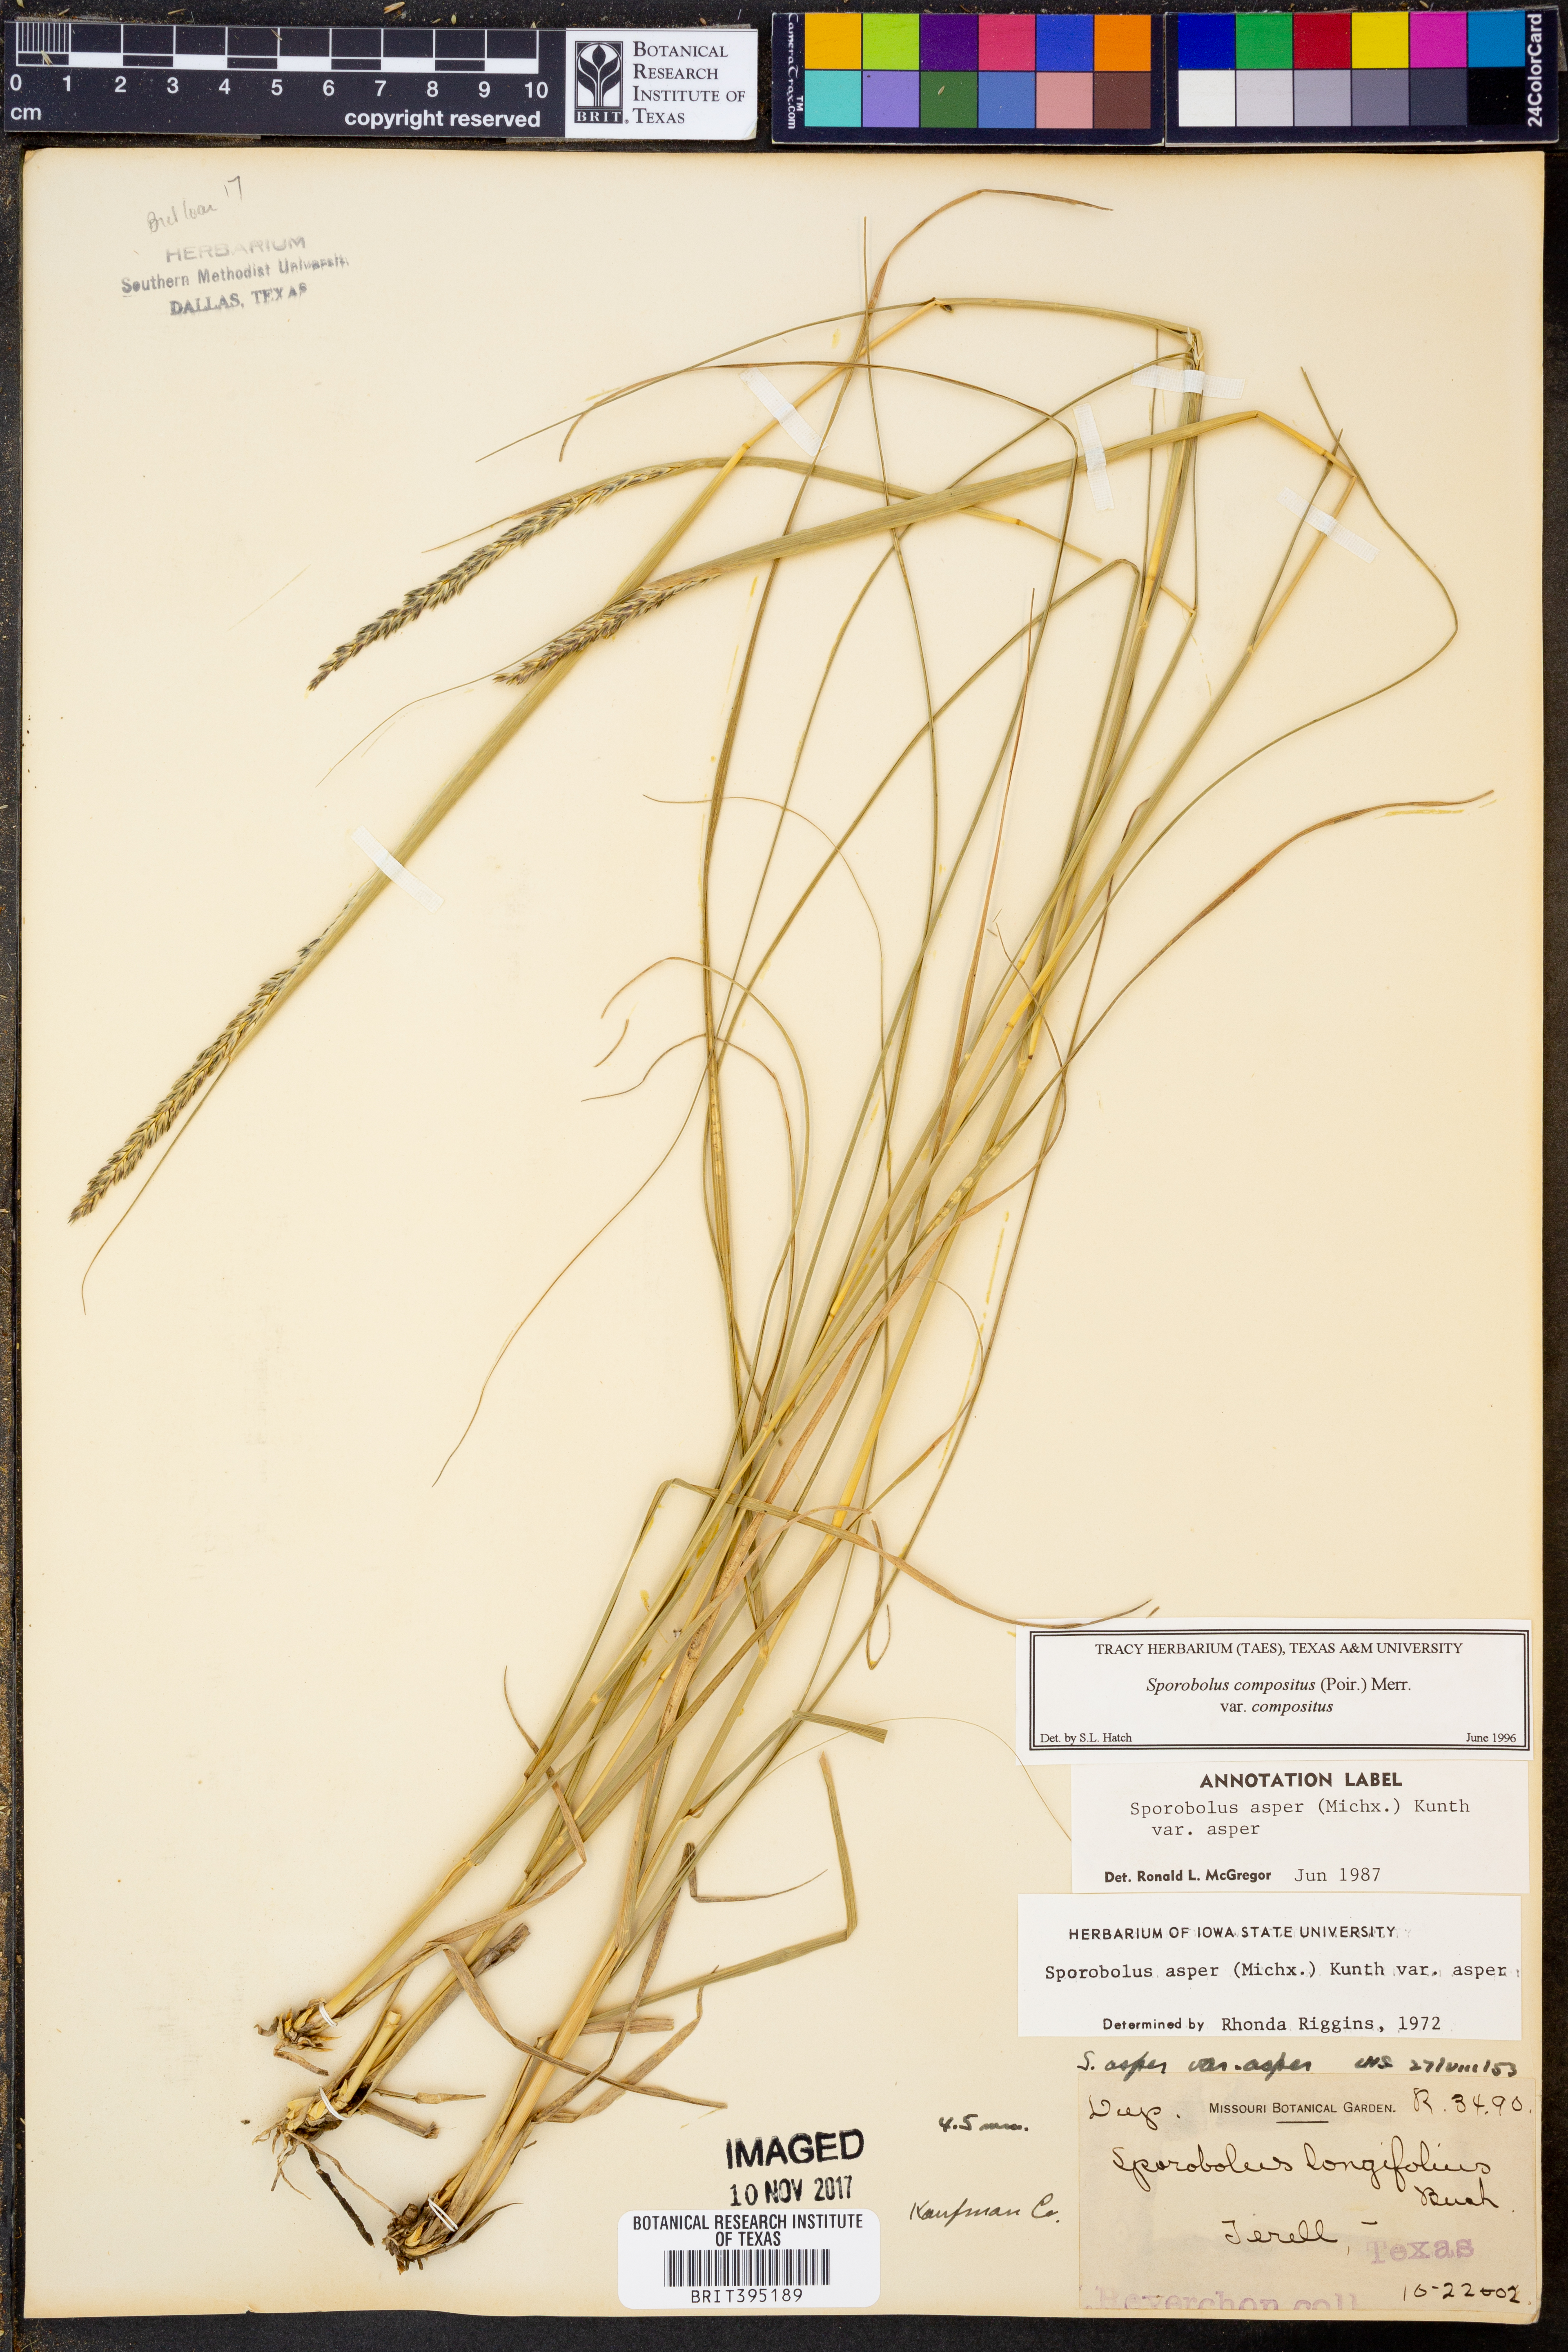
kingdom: Plantae
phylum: Tracheophyta
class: Liliopsida
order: Poales
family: Poaceae
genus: Sporobolus
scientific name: Sporobolus compositus
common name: Rough dropseed
